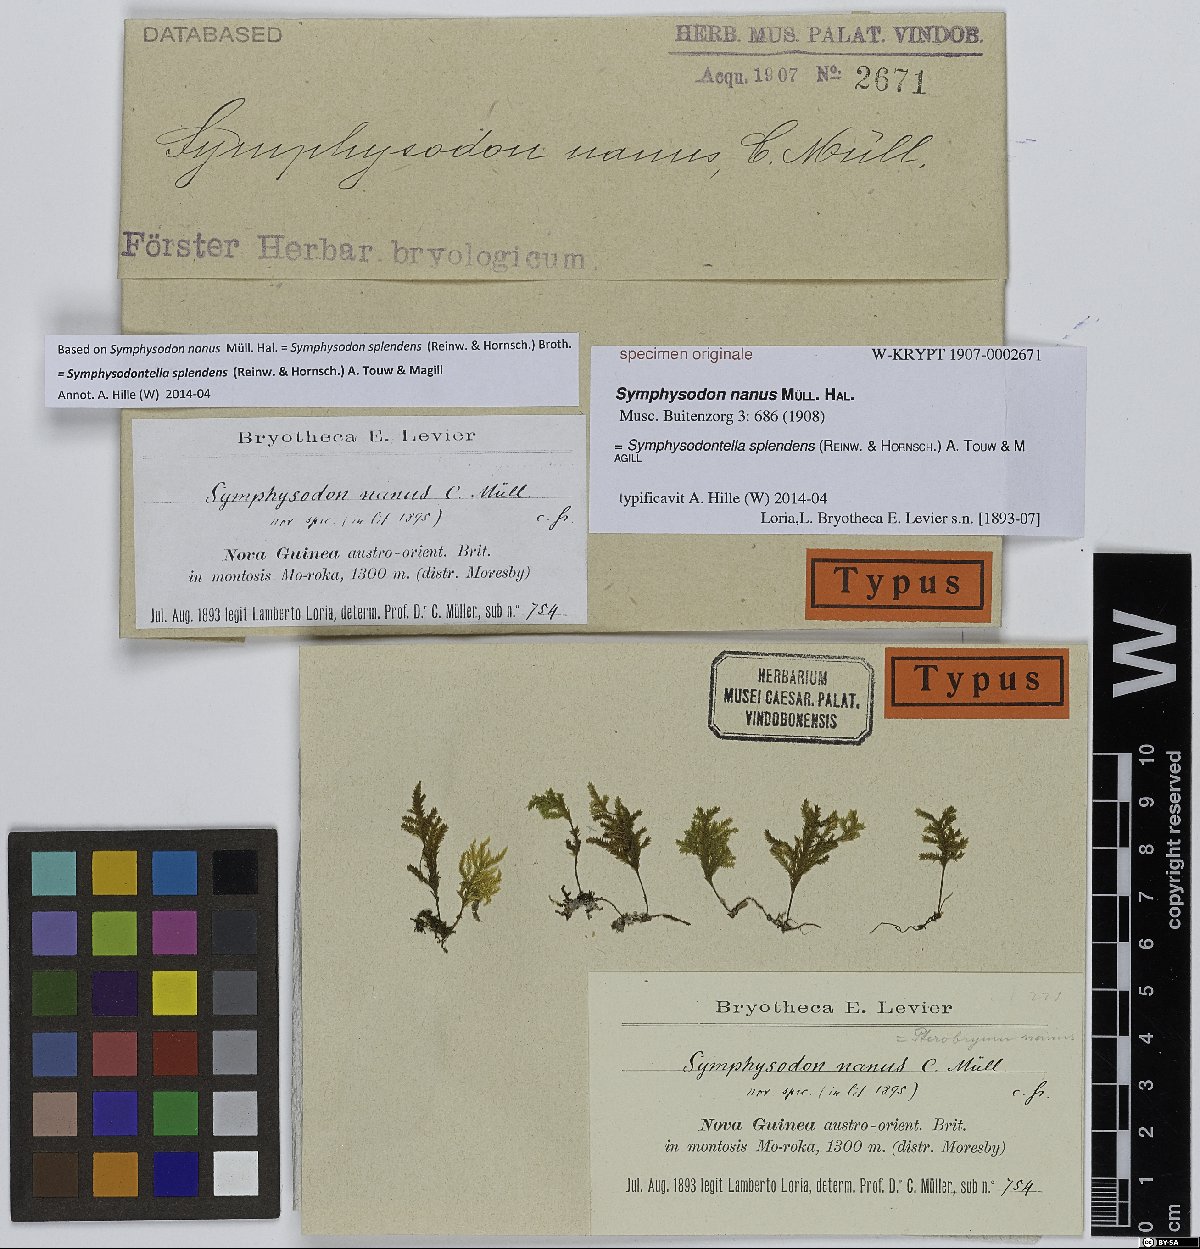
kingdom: Plantae
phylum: Bryophyta
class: Bryopsida
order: Hypnales
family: Pterobryaceae
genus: Symphysodon
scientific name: Symphysodon
